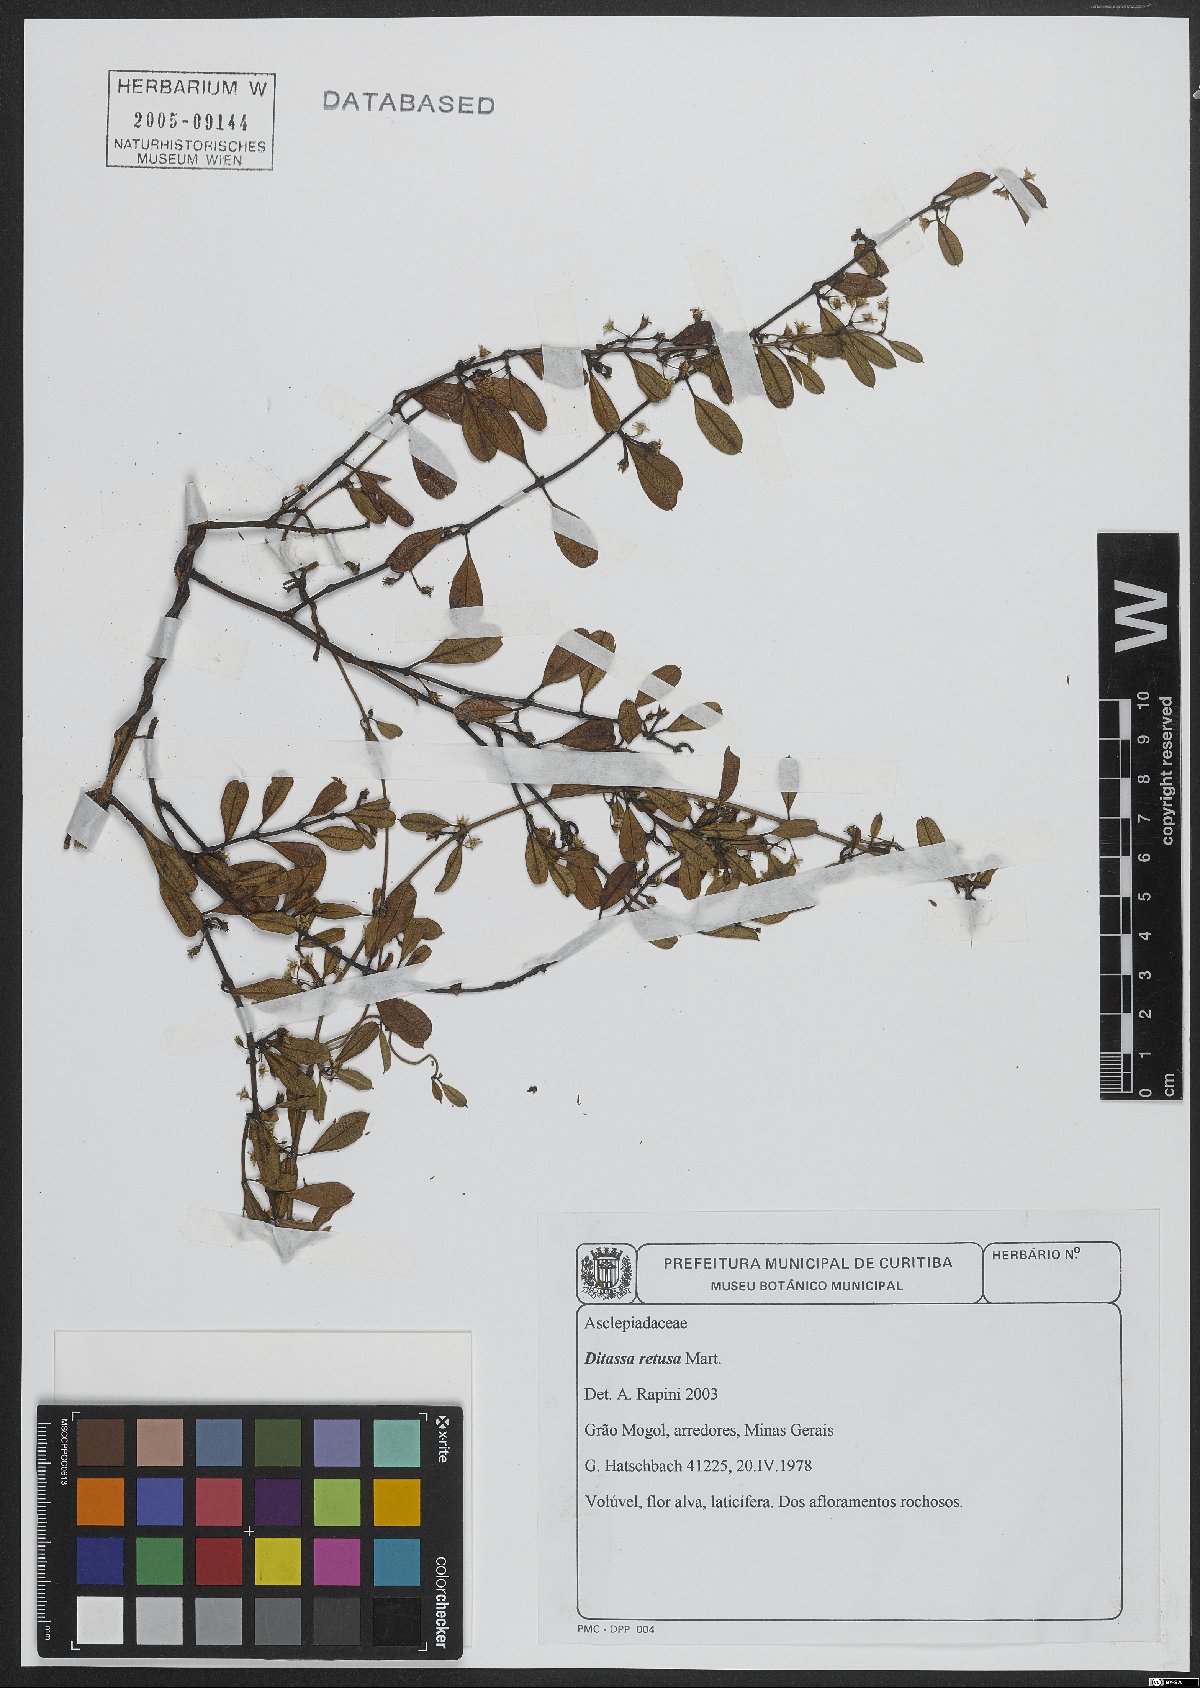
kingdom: Plantae
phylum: Tracheophyta
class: Magnoliopsida
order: Gentianales
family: Apocynaceae
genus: Ditassa
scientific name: Ditassa retusa
